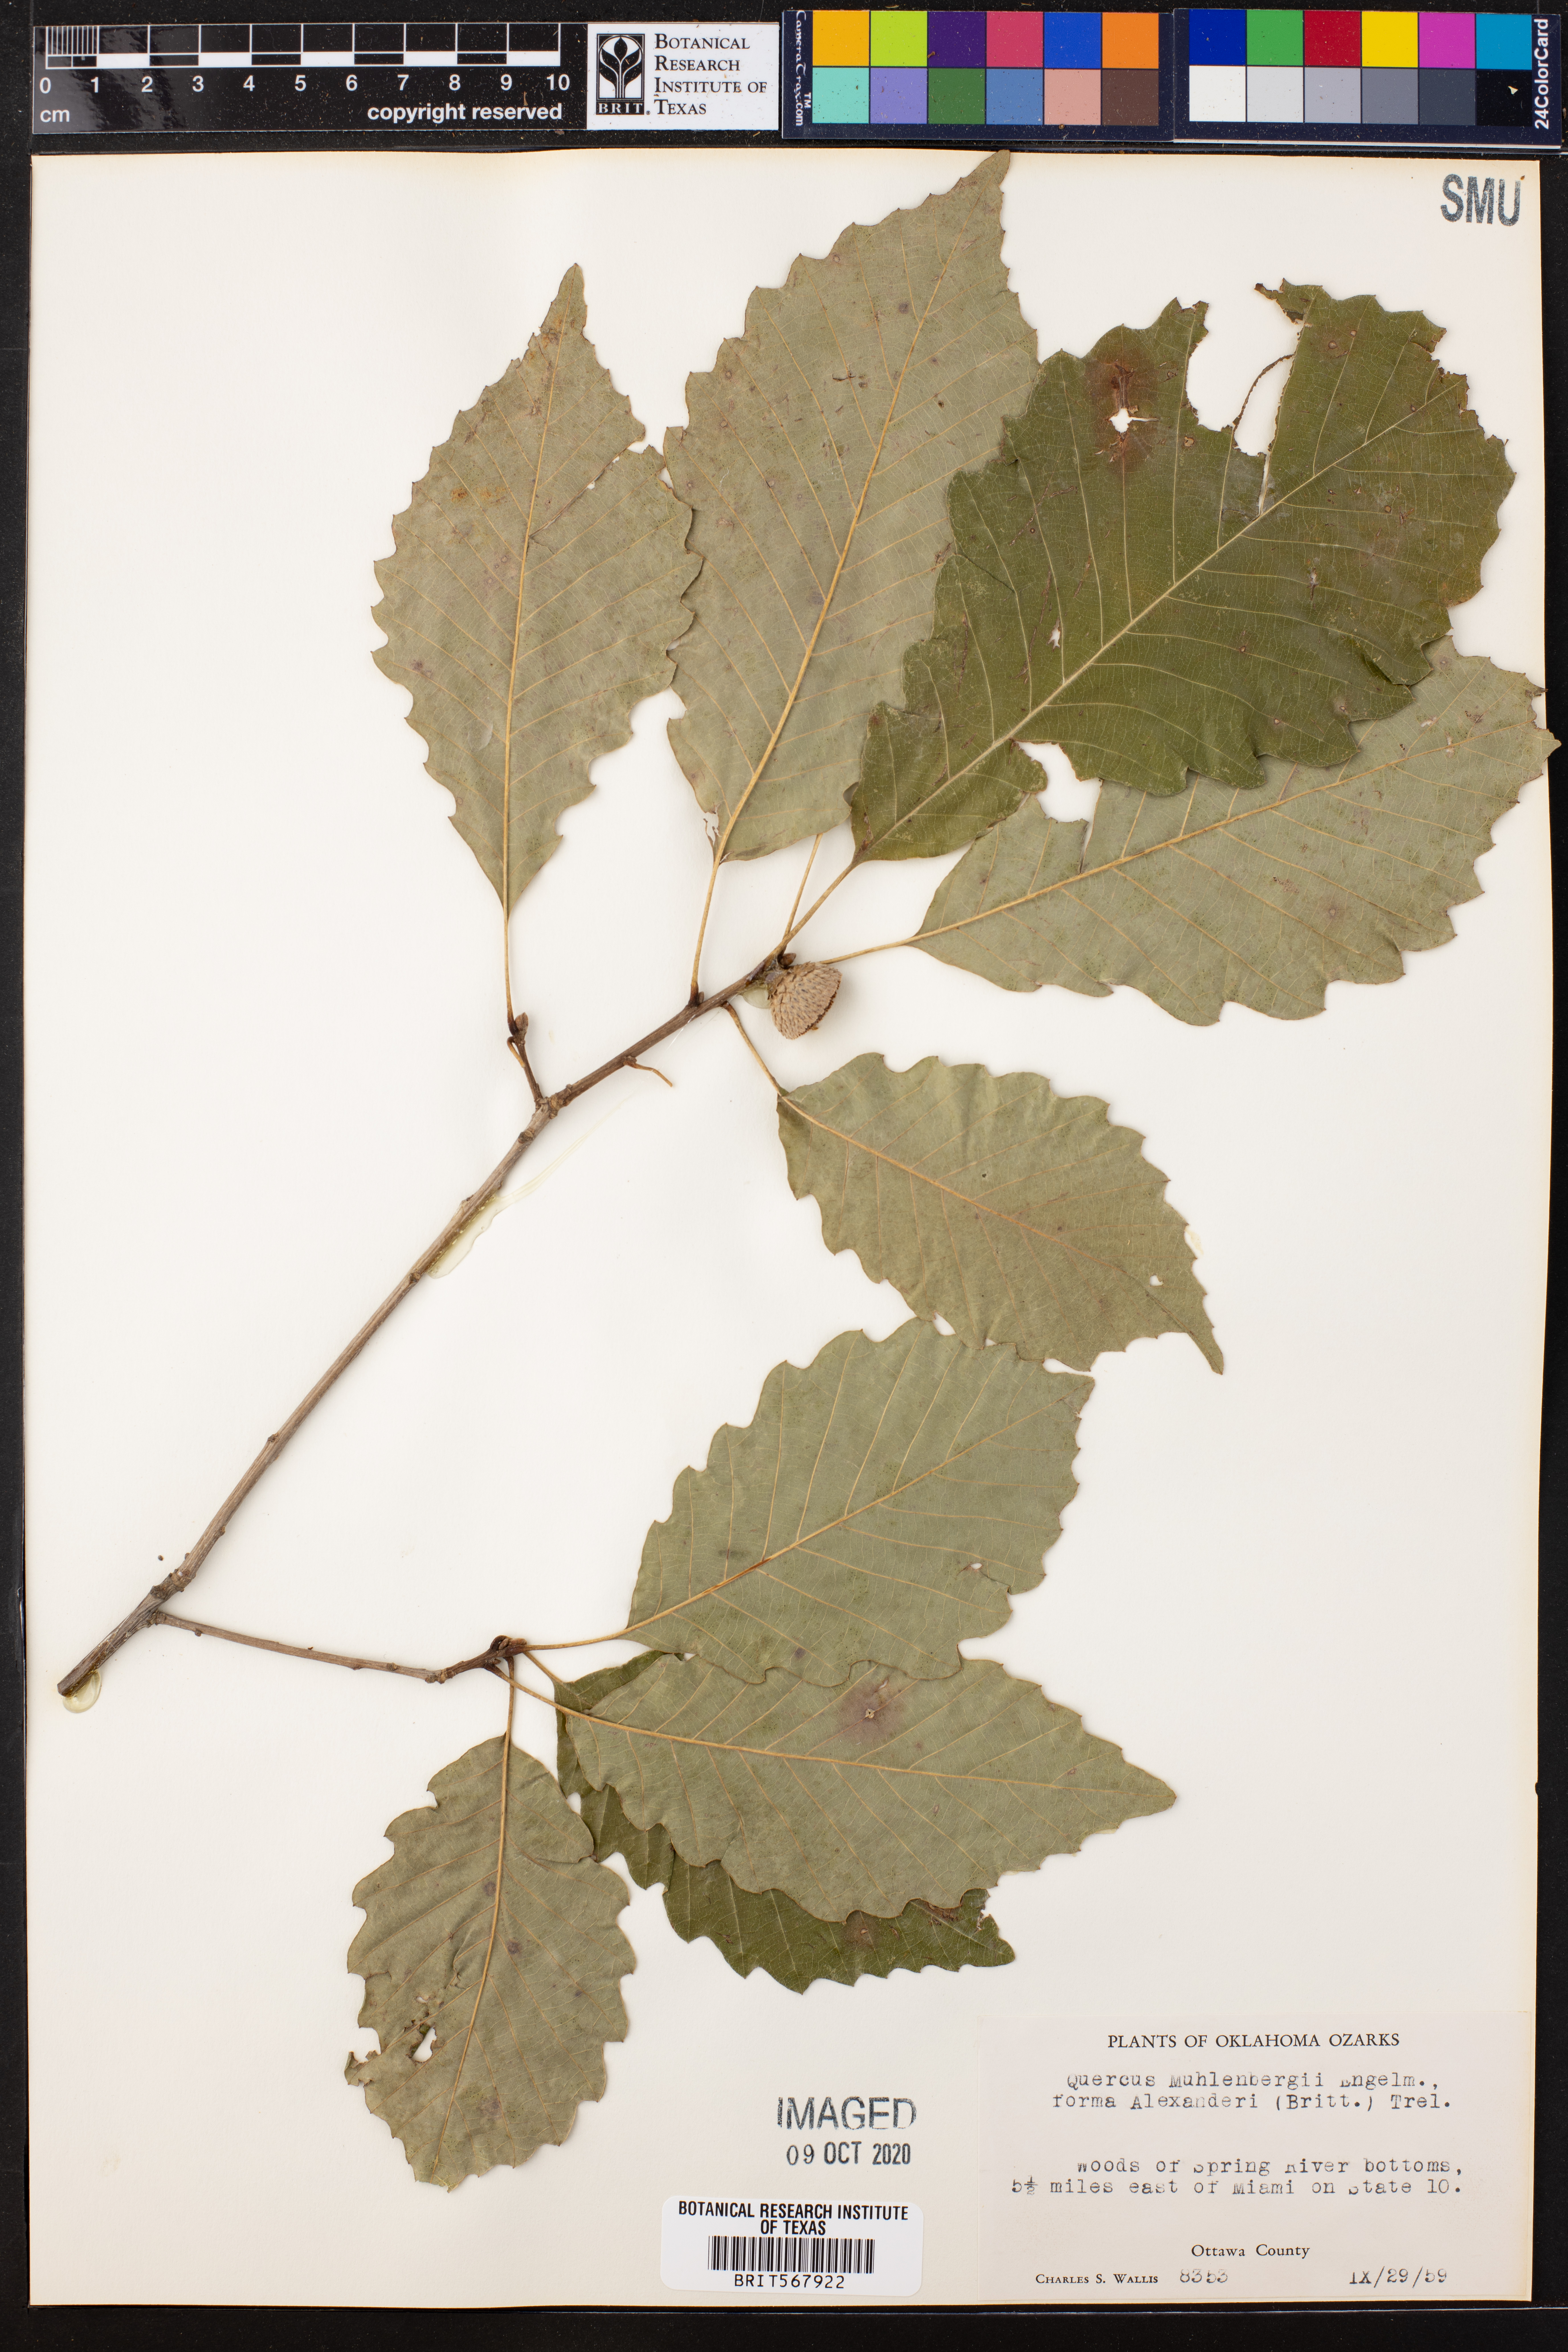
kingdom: Plantae
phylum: Tracheophyta
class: Magnoliopsida
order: Fagales
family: Fagaceae
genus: Quercus
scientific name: Quercus muehlenbergii
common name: Chinkapin oak
